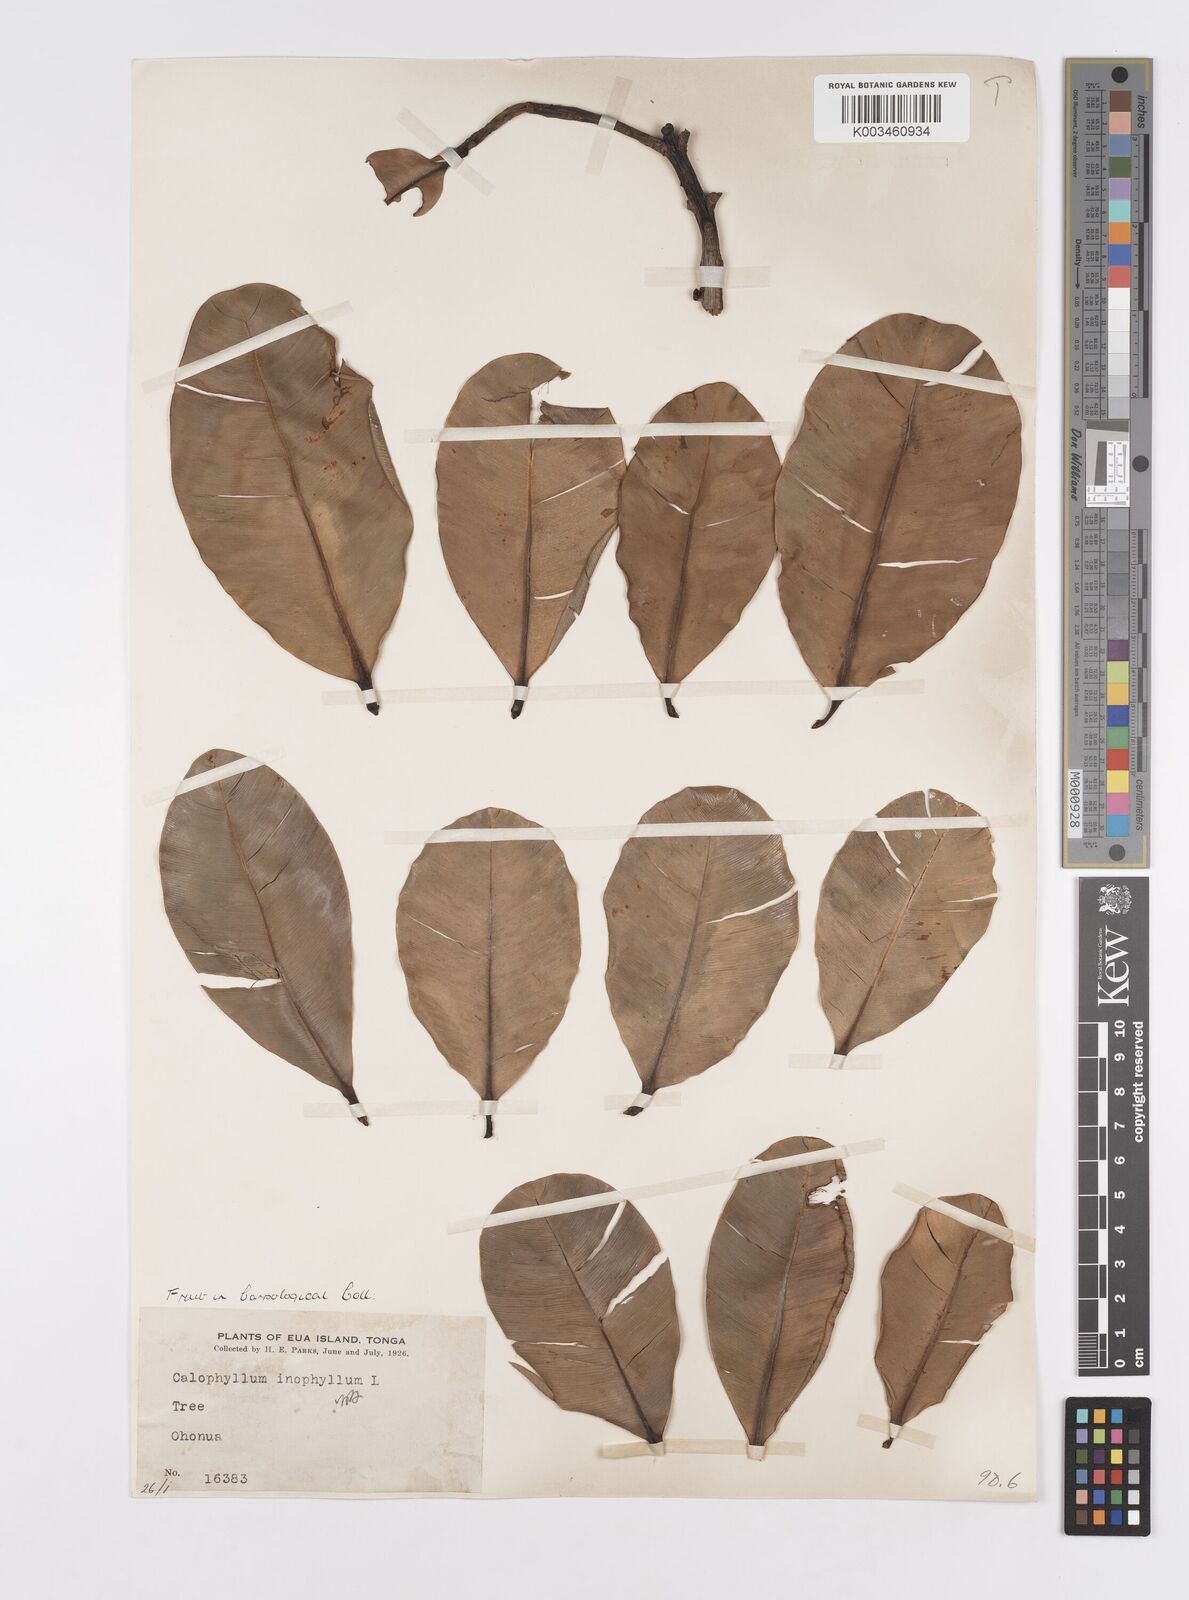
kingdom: Plantae
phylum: Tracheophyta
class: Magnoliopsida
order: Malpighiales
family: Calophyllaceae
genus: Calophyllum
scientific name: Calophyllum inophyllum
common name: Alexandrian laurel
